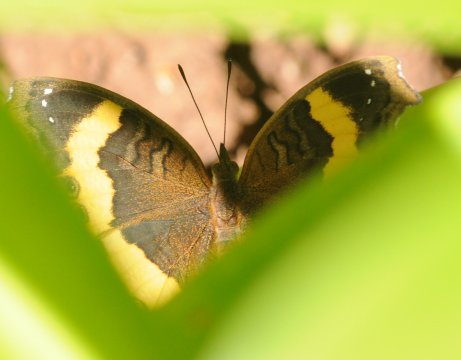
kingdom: Animalia
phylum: Arthropoda
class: Insecta
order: Lepidoptera
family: Nymphalidae
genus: Junonia
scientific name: Junonia terea
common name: Soldier Pansy
